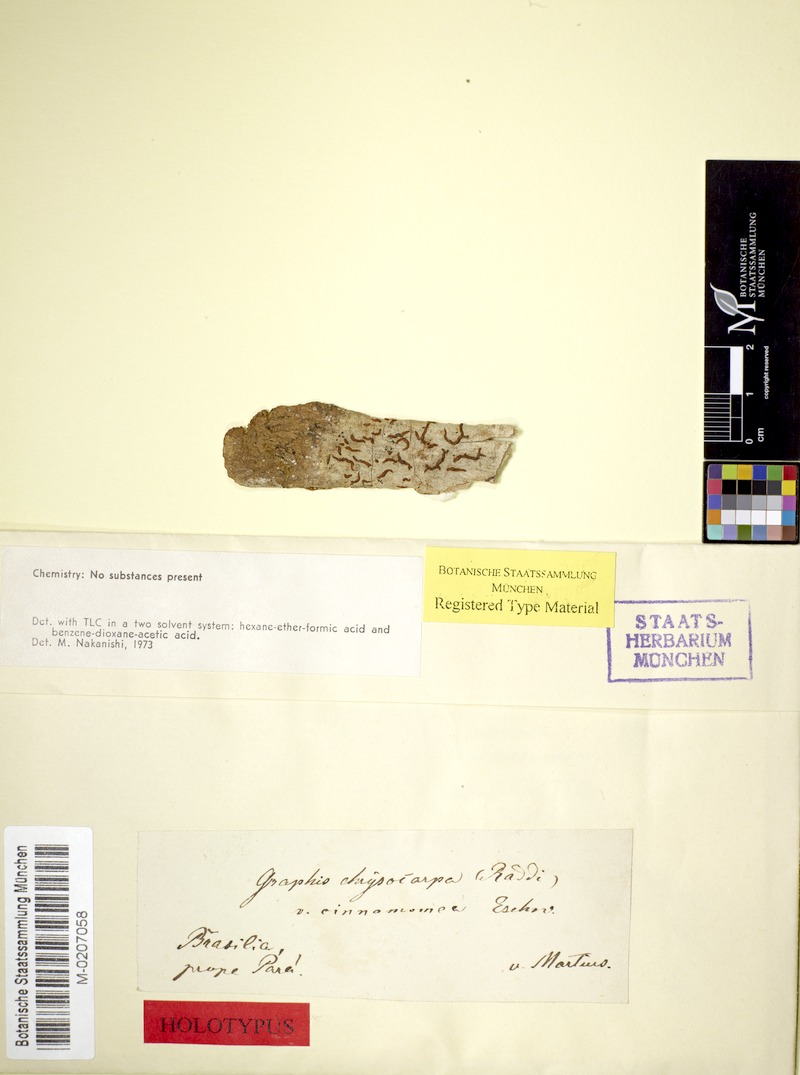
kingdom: Fungi
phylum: Ascomycota
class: Lecanoromycetes
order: Ostropales
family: Graphidaceae
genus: Allographa
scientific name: Allographa chrysocarpa
